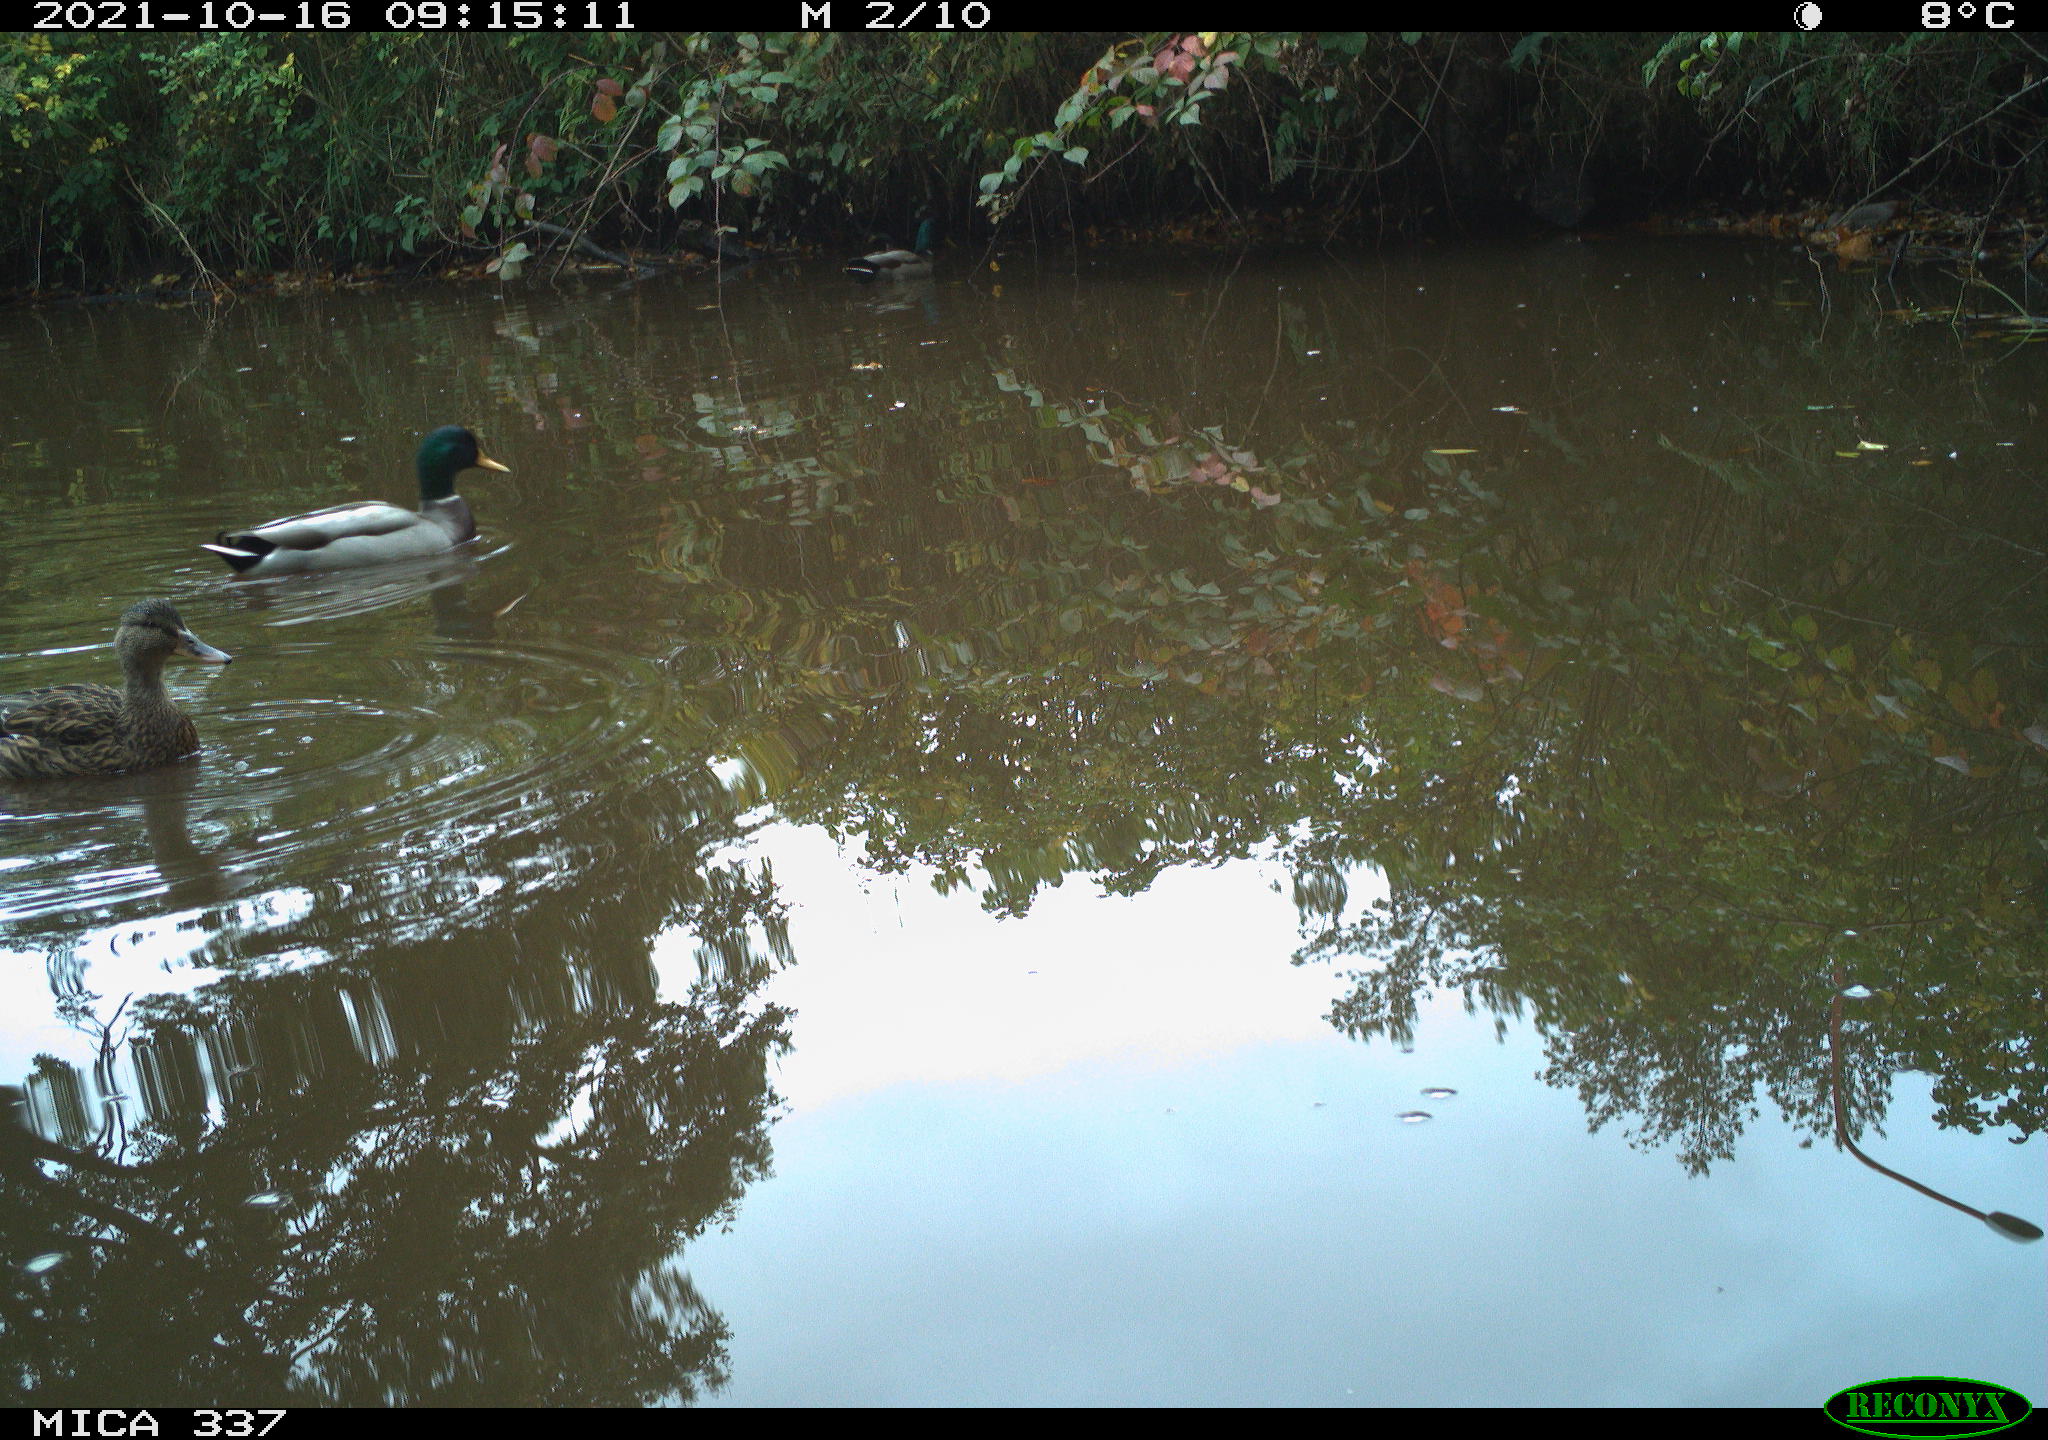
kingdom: Animalia
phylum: Chordata
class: Aves
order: Anseriformes
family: Anatidae
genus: Anas
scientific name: Anas platyrhynchos
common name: Mallard
